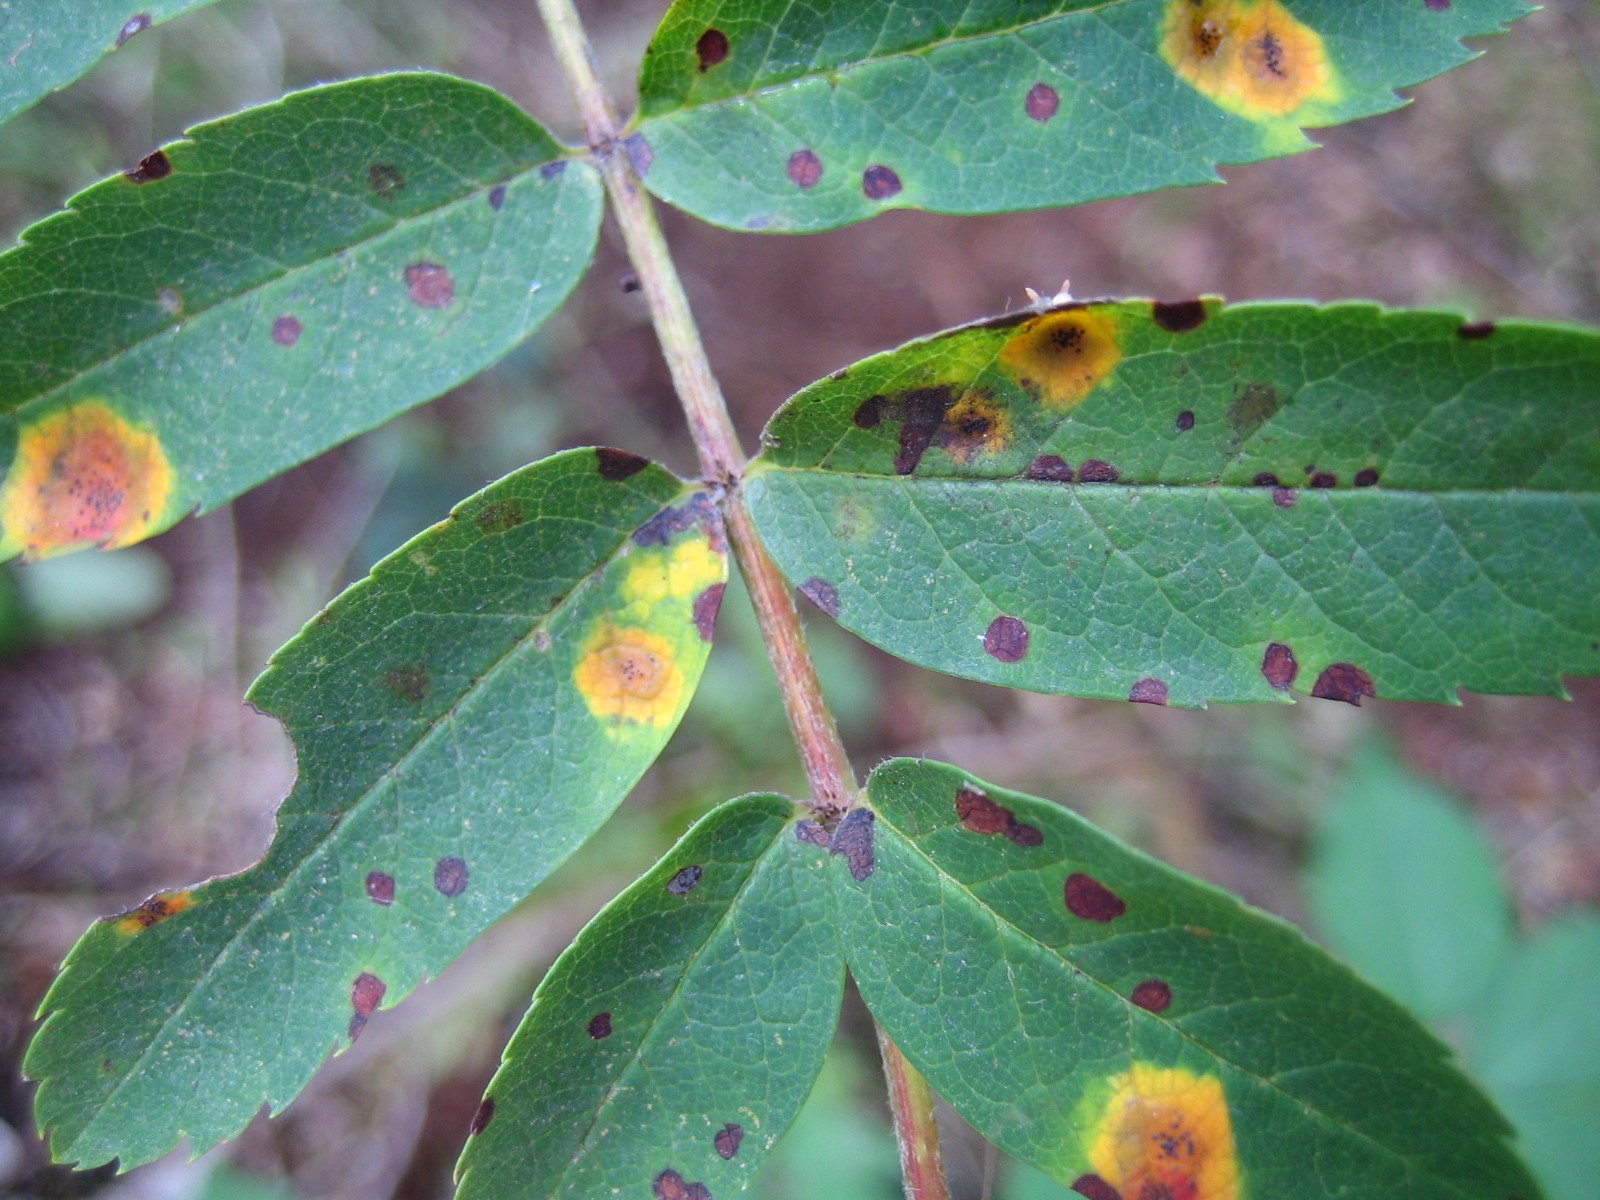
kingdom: Fungi
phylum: Basidiomycota
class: Pucciniomycetes
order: Pucciniales
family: Gymnosporangiaceae
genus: Gymnosporangium
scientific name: Gymnosporangium cornutum
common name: rønnehorn-bævrerust
